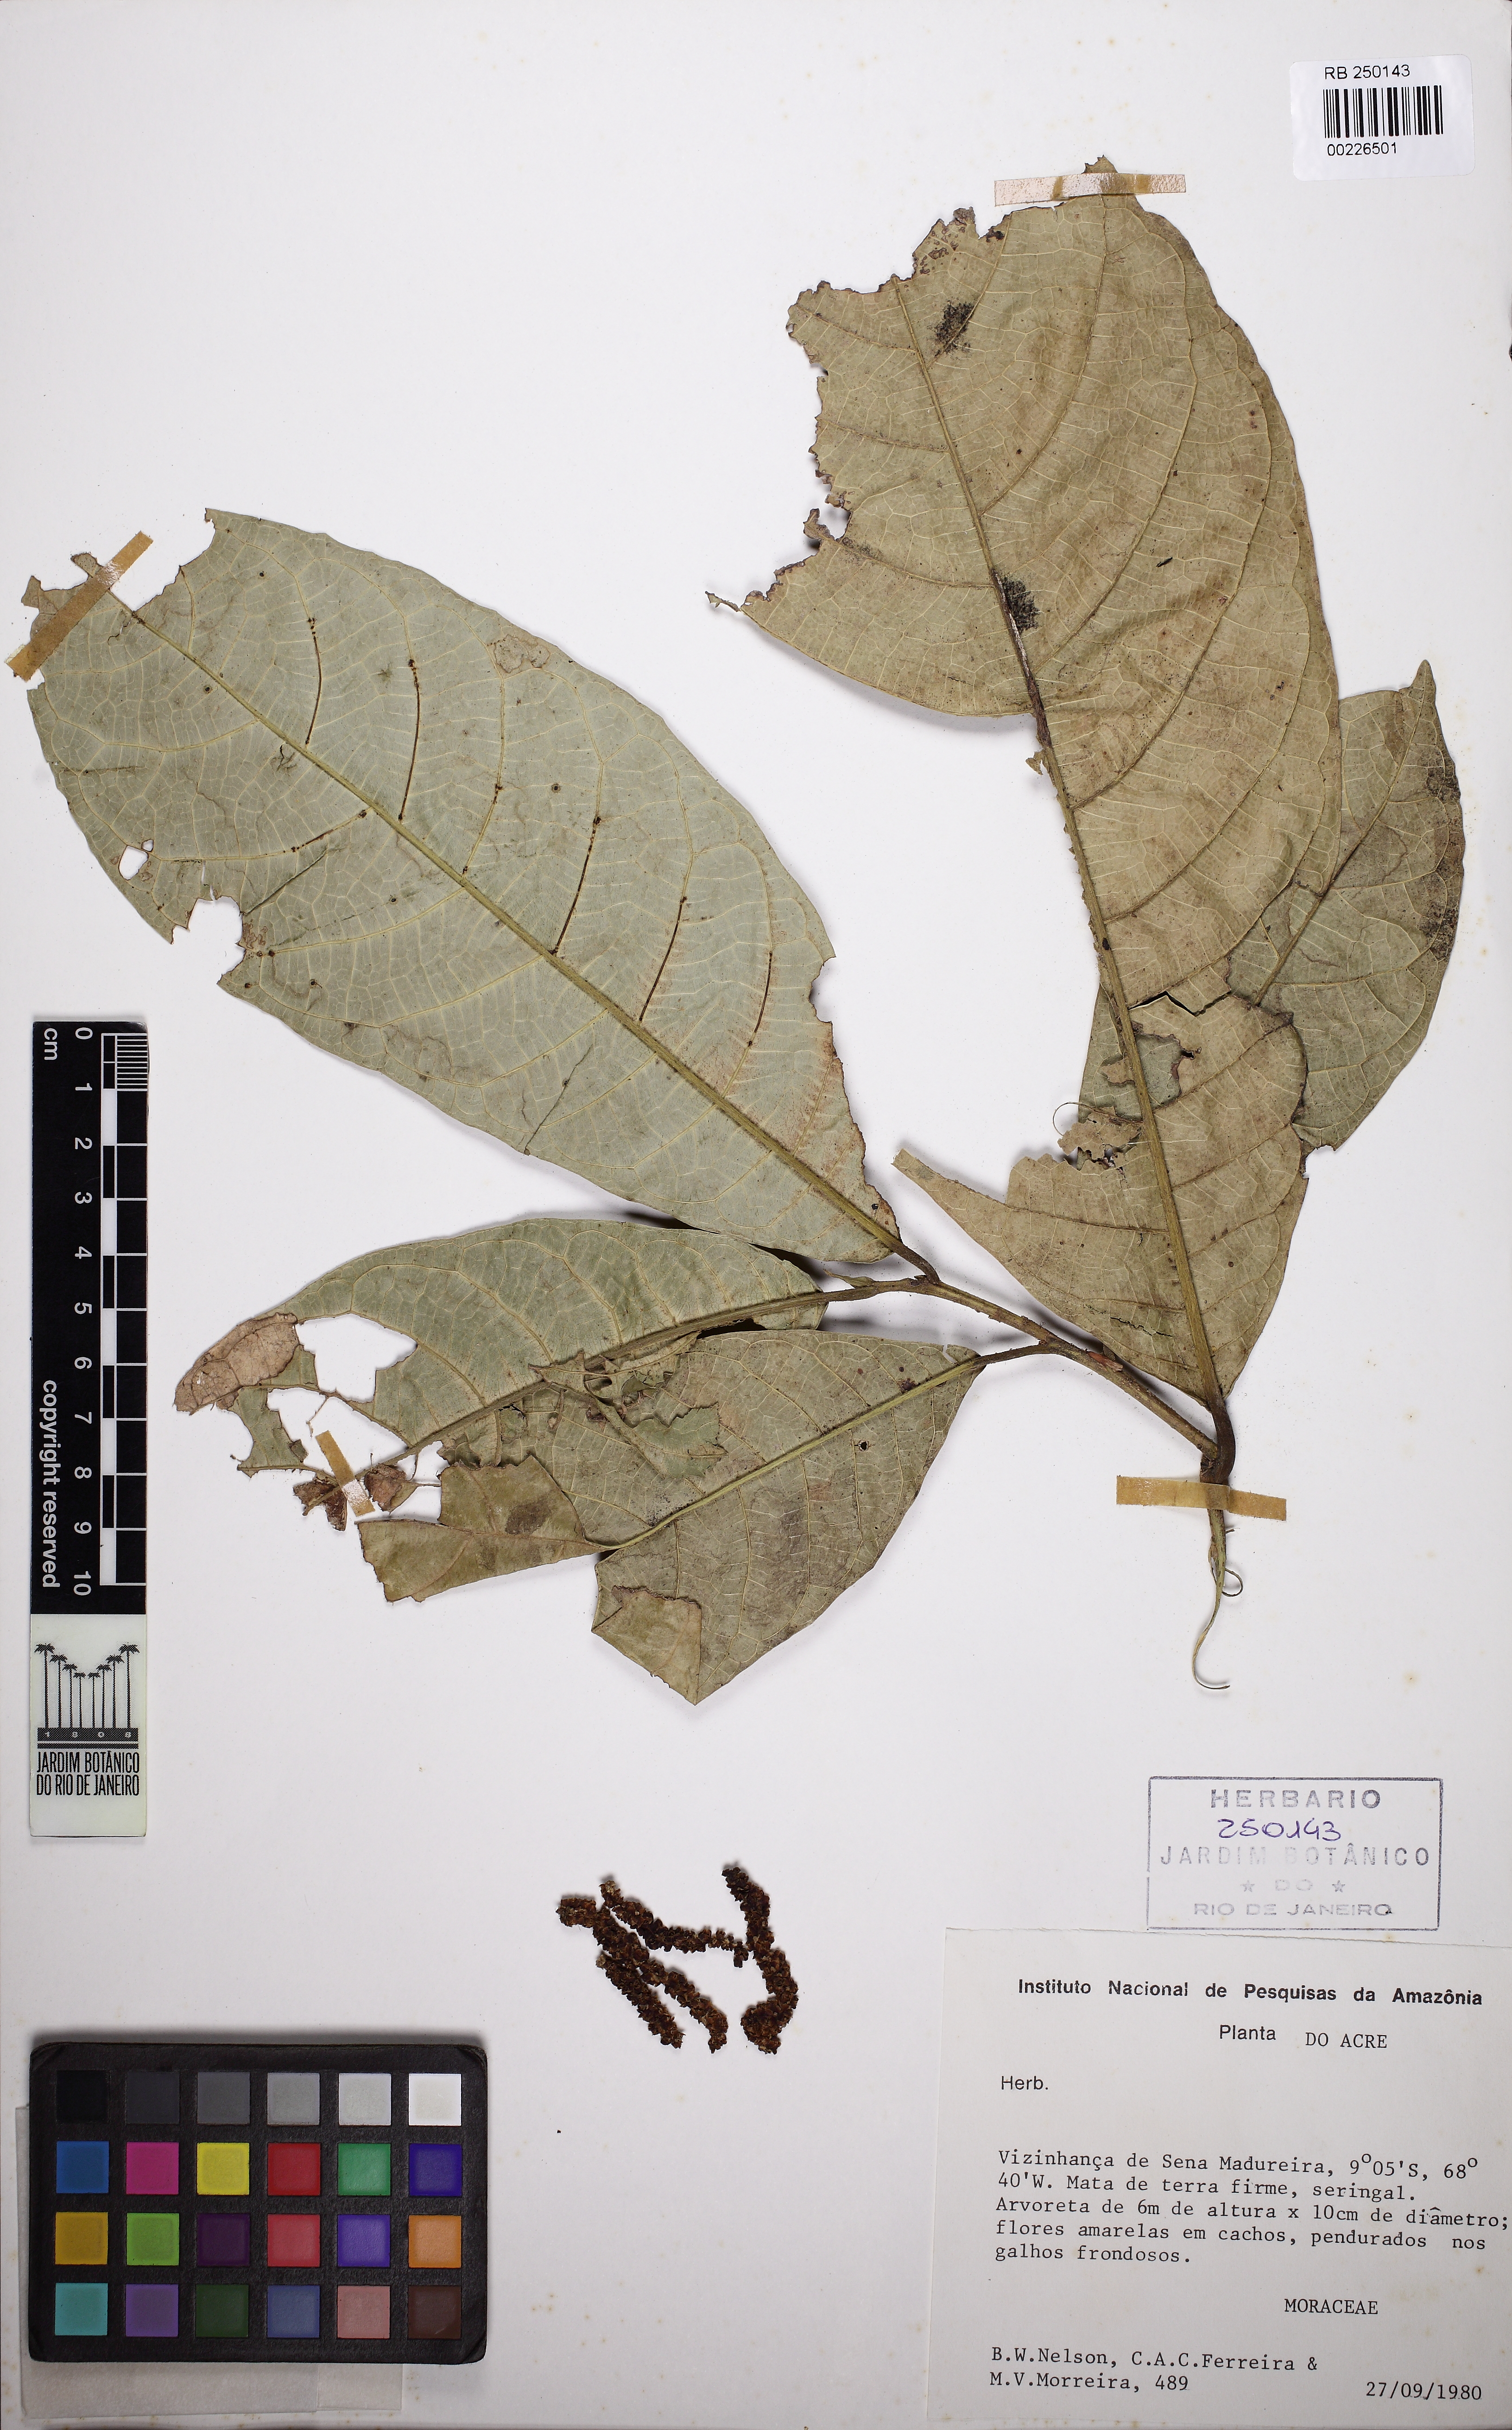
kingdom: Plantae
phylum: Tracheophyta
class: Magnoliopsida
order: Rosales
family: Moraceae
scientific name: Moraceae
